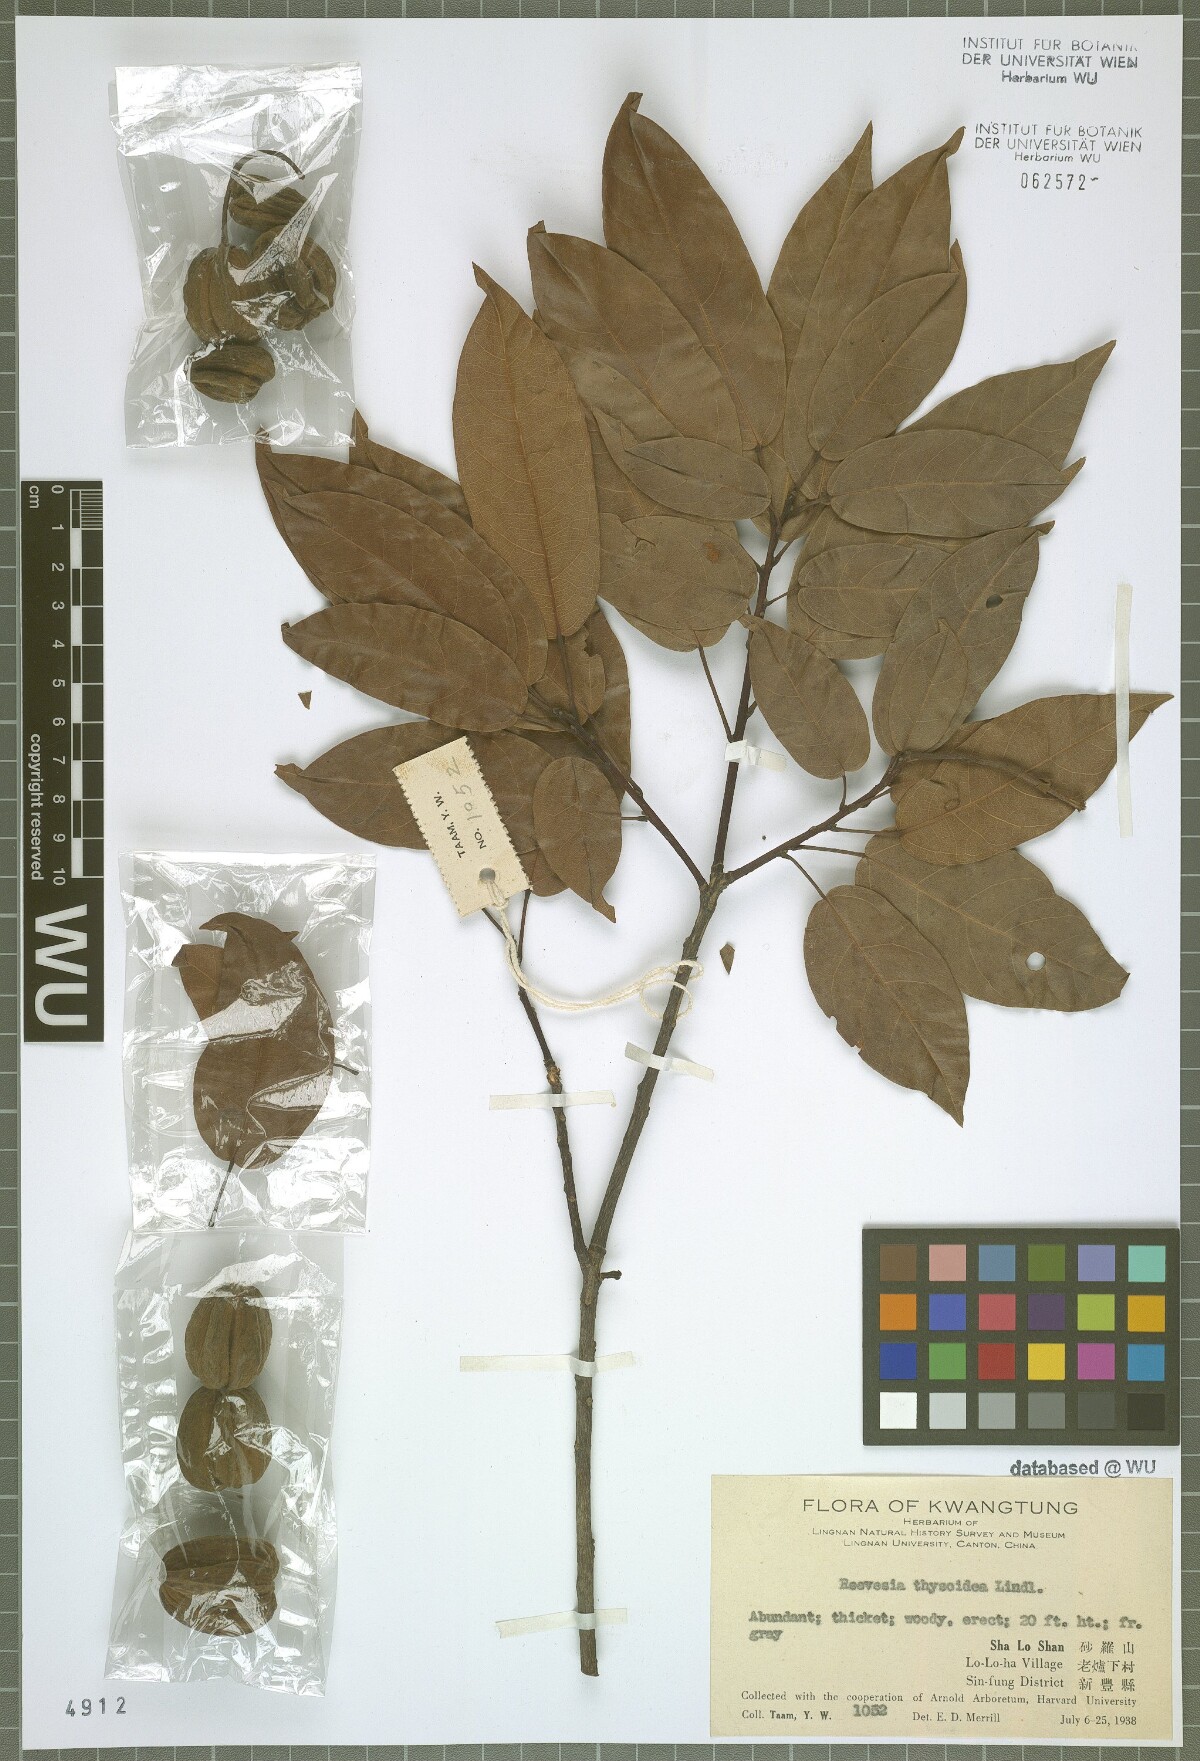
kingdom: Plantae
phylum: Tracheophyta
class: Magnoliopsida
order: Malvales
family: Malvaceae
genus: Reevesia
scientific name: Reevesia thyrsoidea
